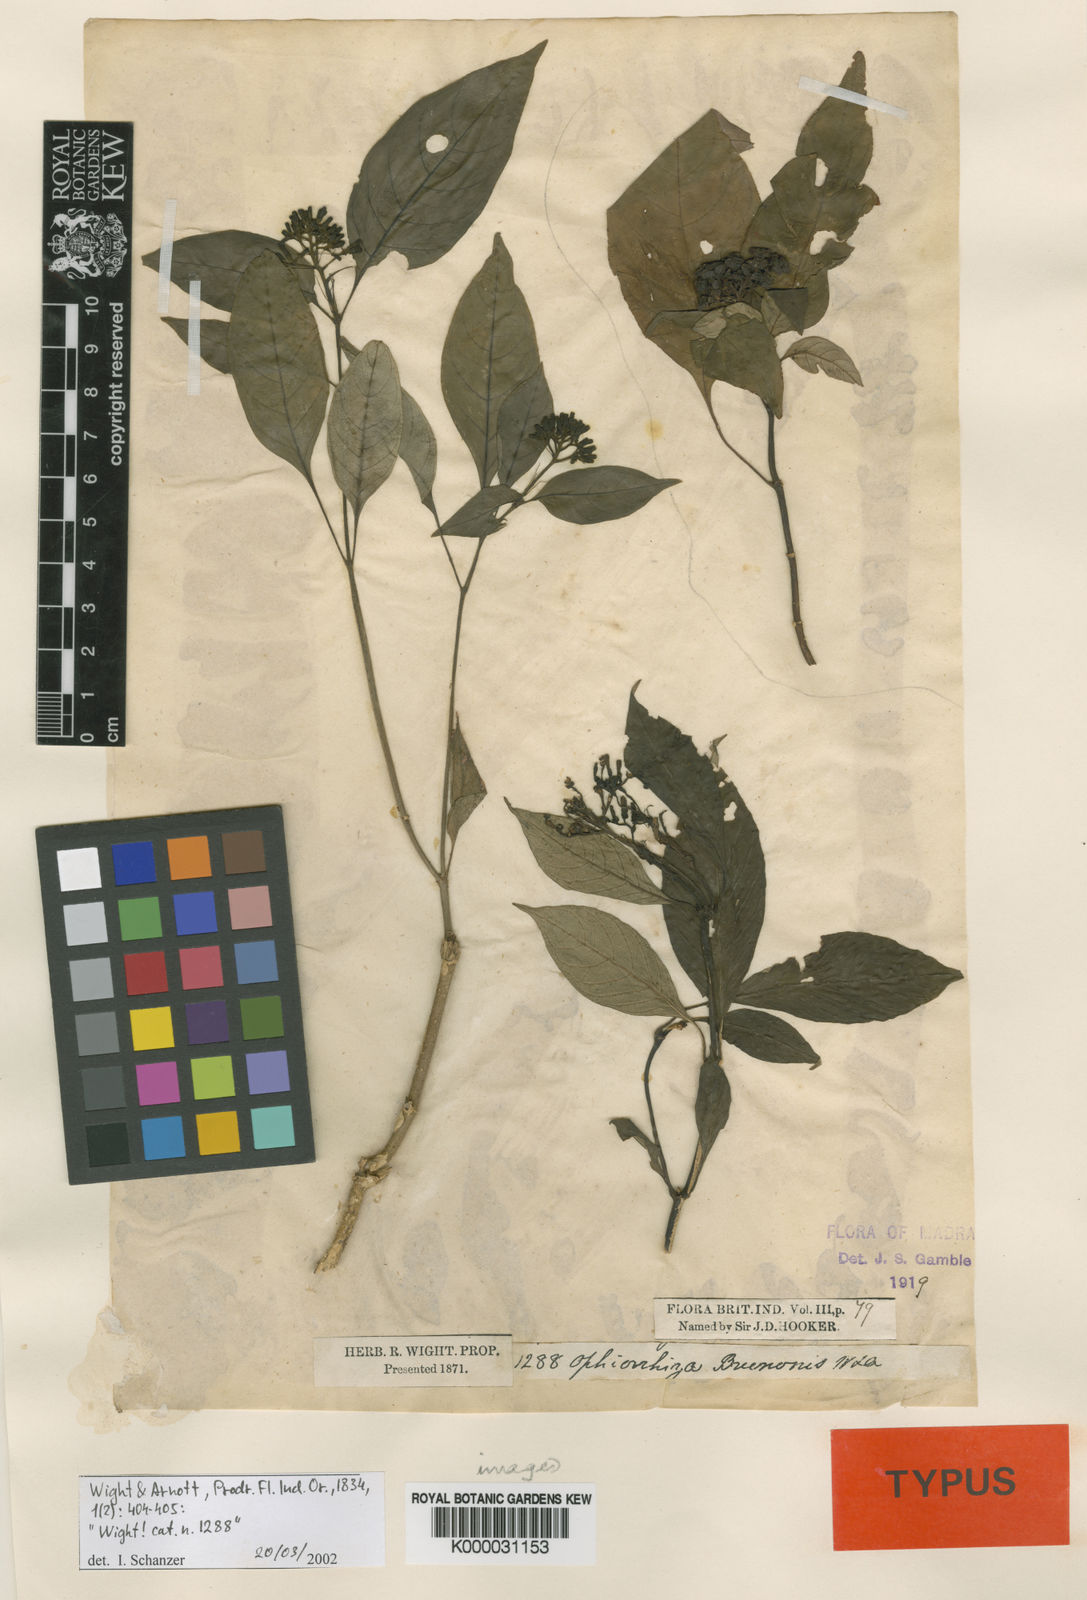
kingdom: Plantae
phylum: Tracheophyta
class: Magnoliopsida
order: Gentianales
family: Rubiaceae
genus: Ophiorrhiza
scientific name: Ophiorrhiza brunonis
